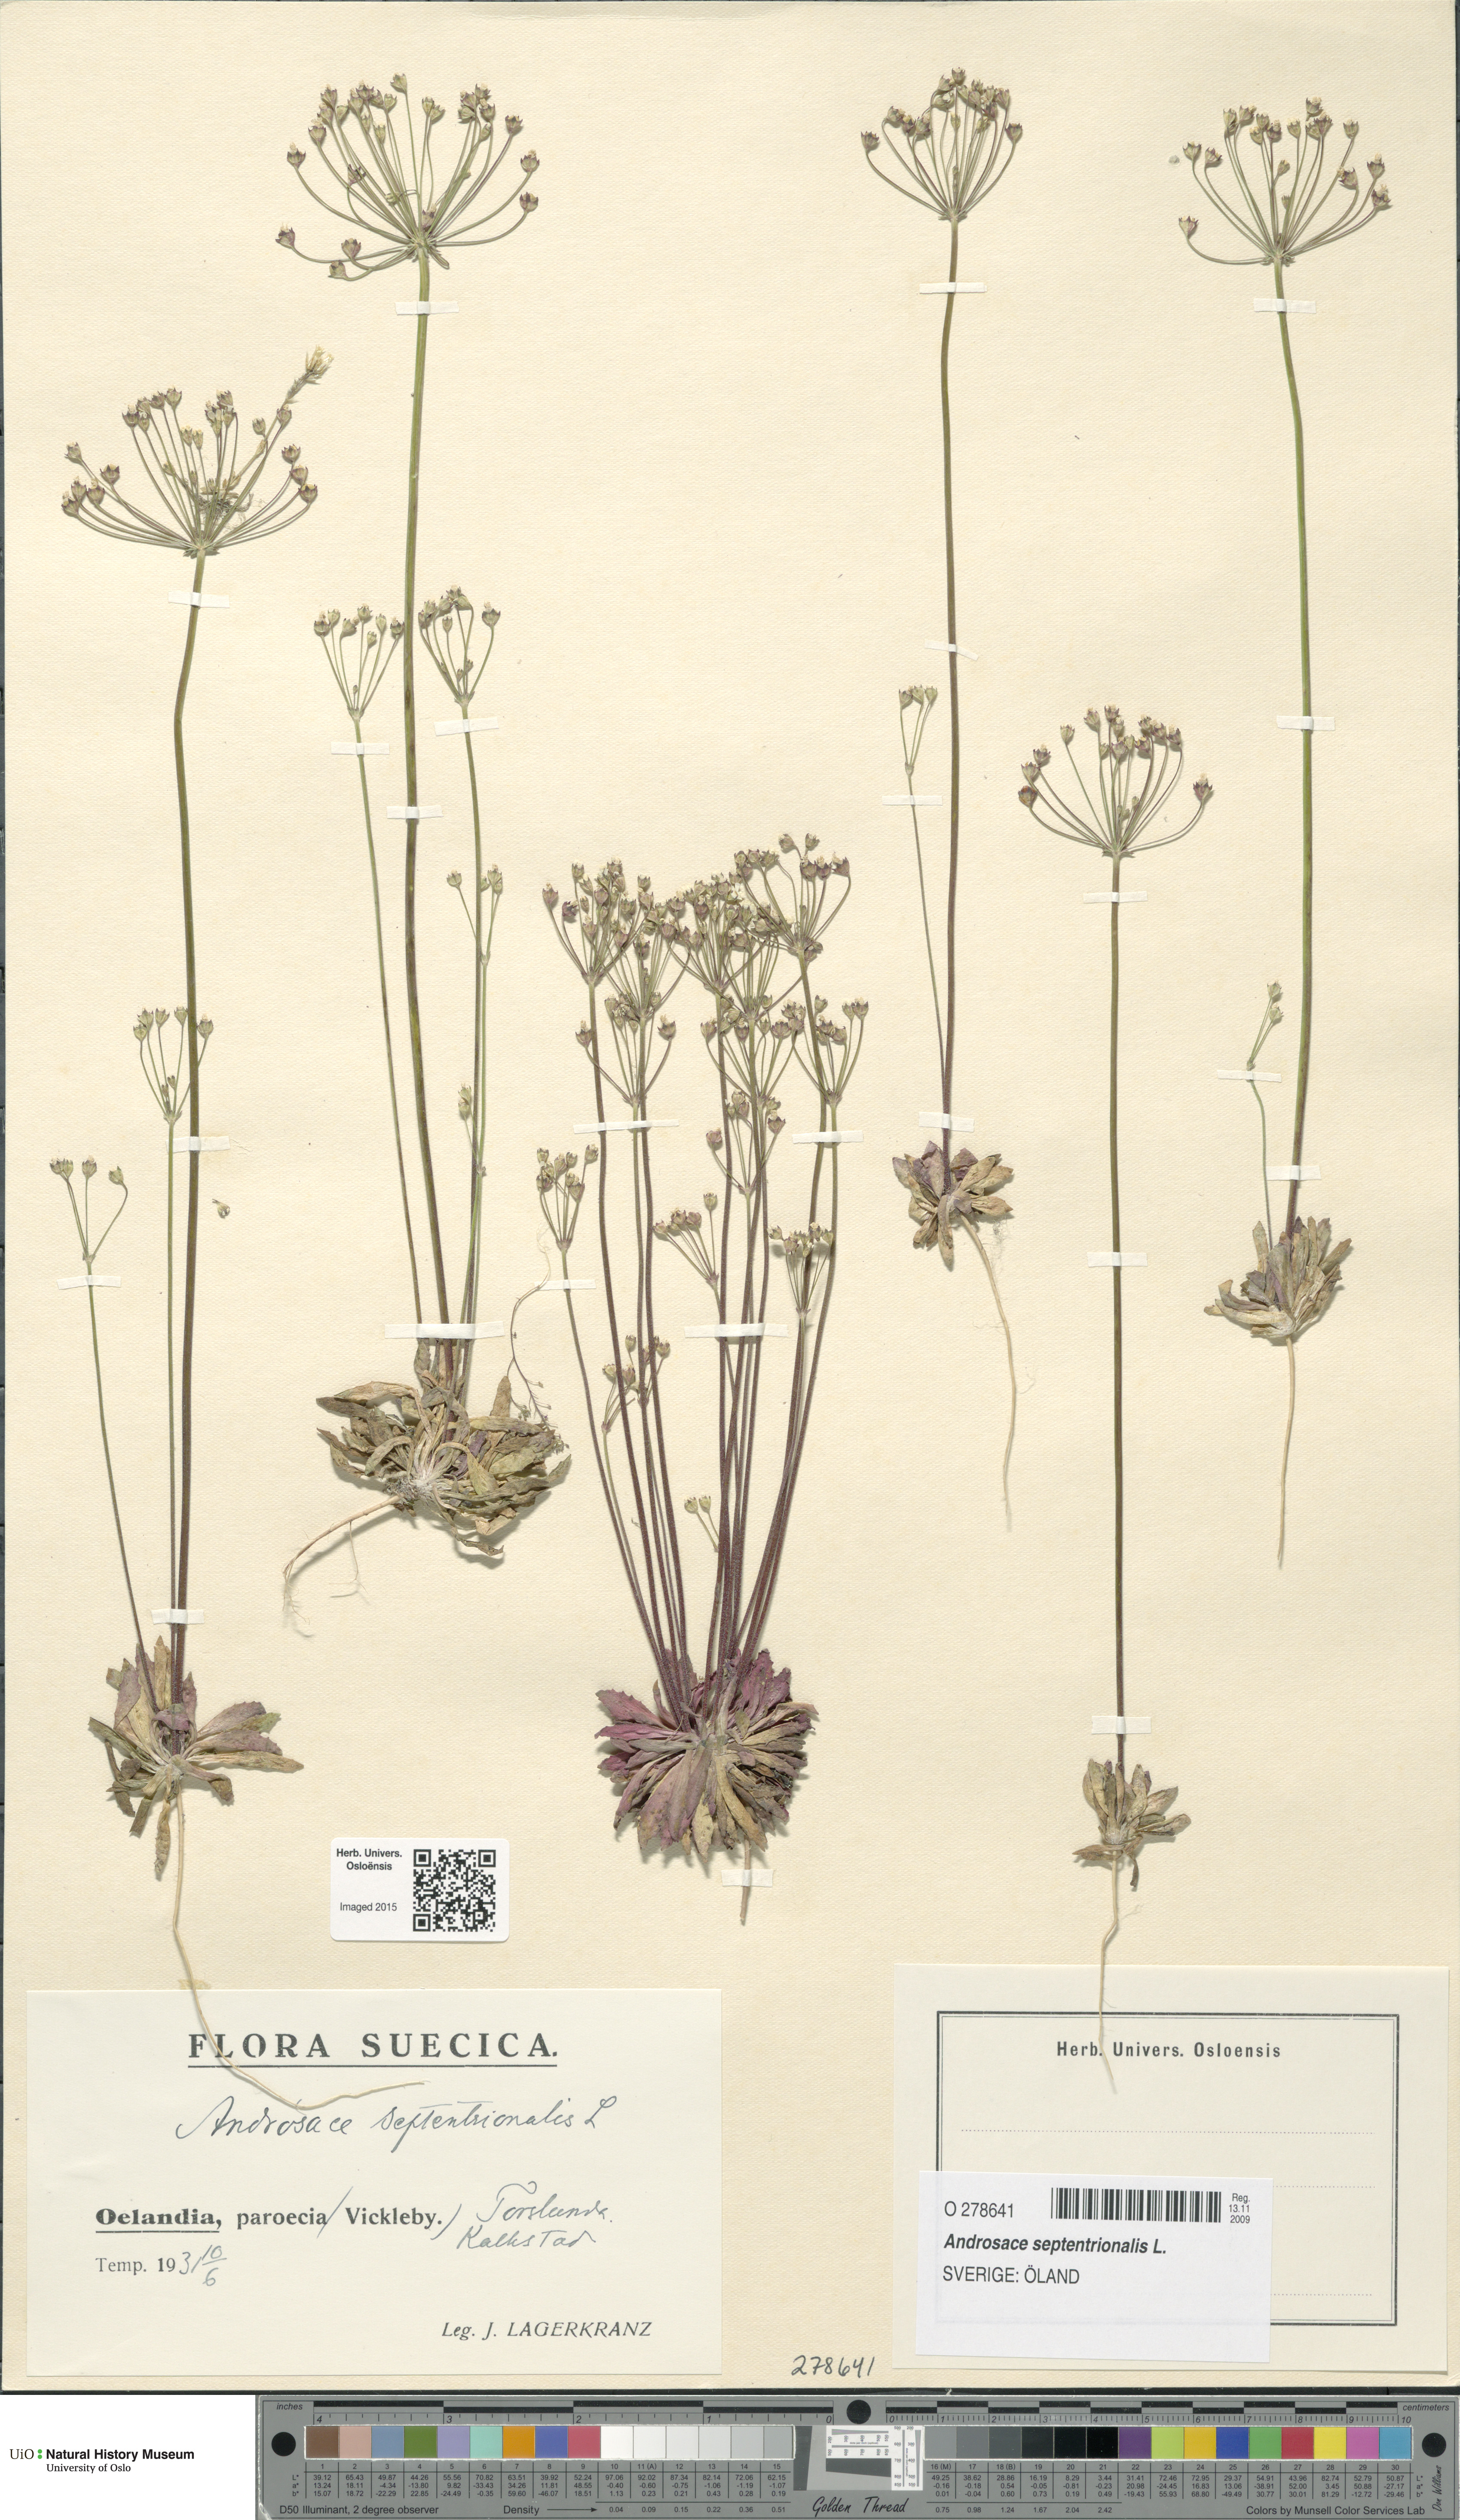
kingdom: Plantae
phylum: Tracheophyta
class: Magnoliopsida
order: Ericales
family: Primulaceae
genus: Androsace
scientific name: Androsace septentrionalis
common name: Hairy northern fairy-candelabra
